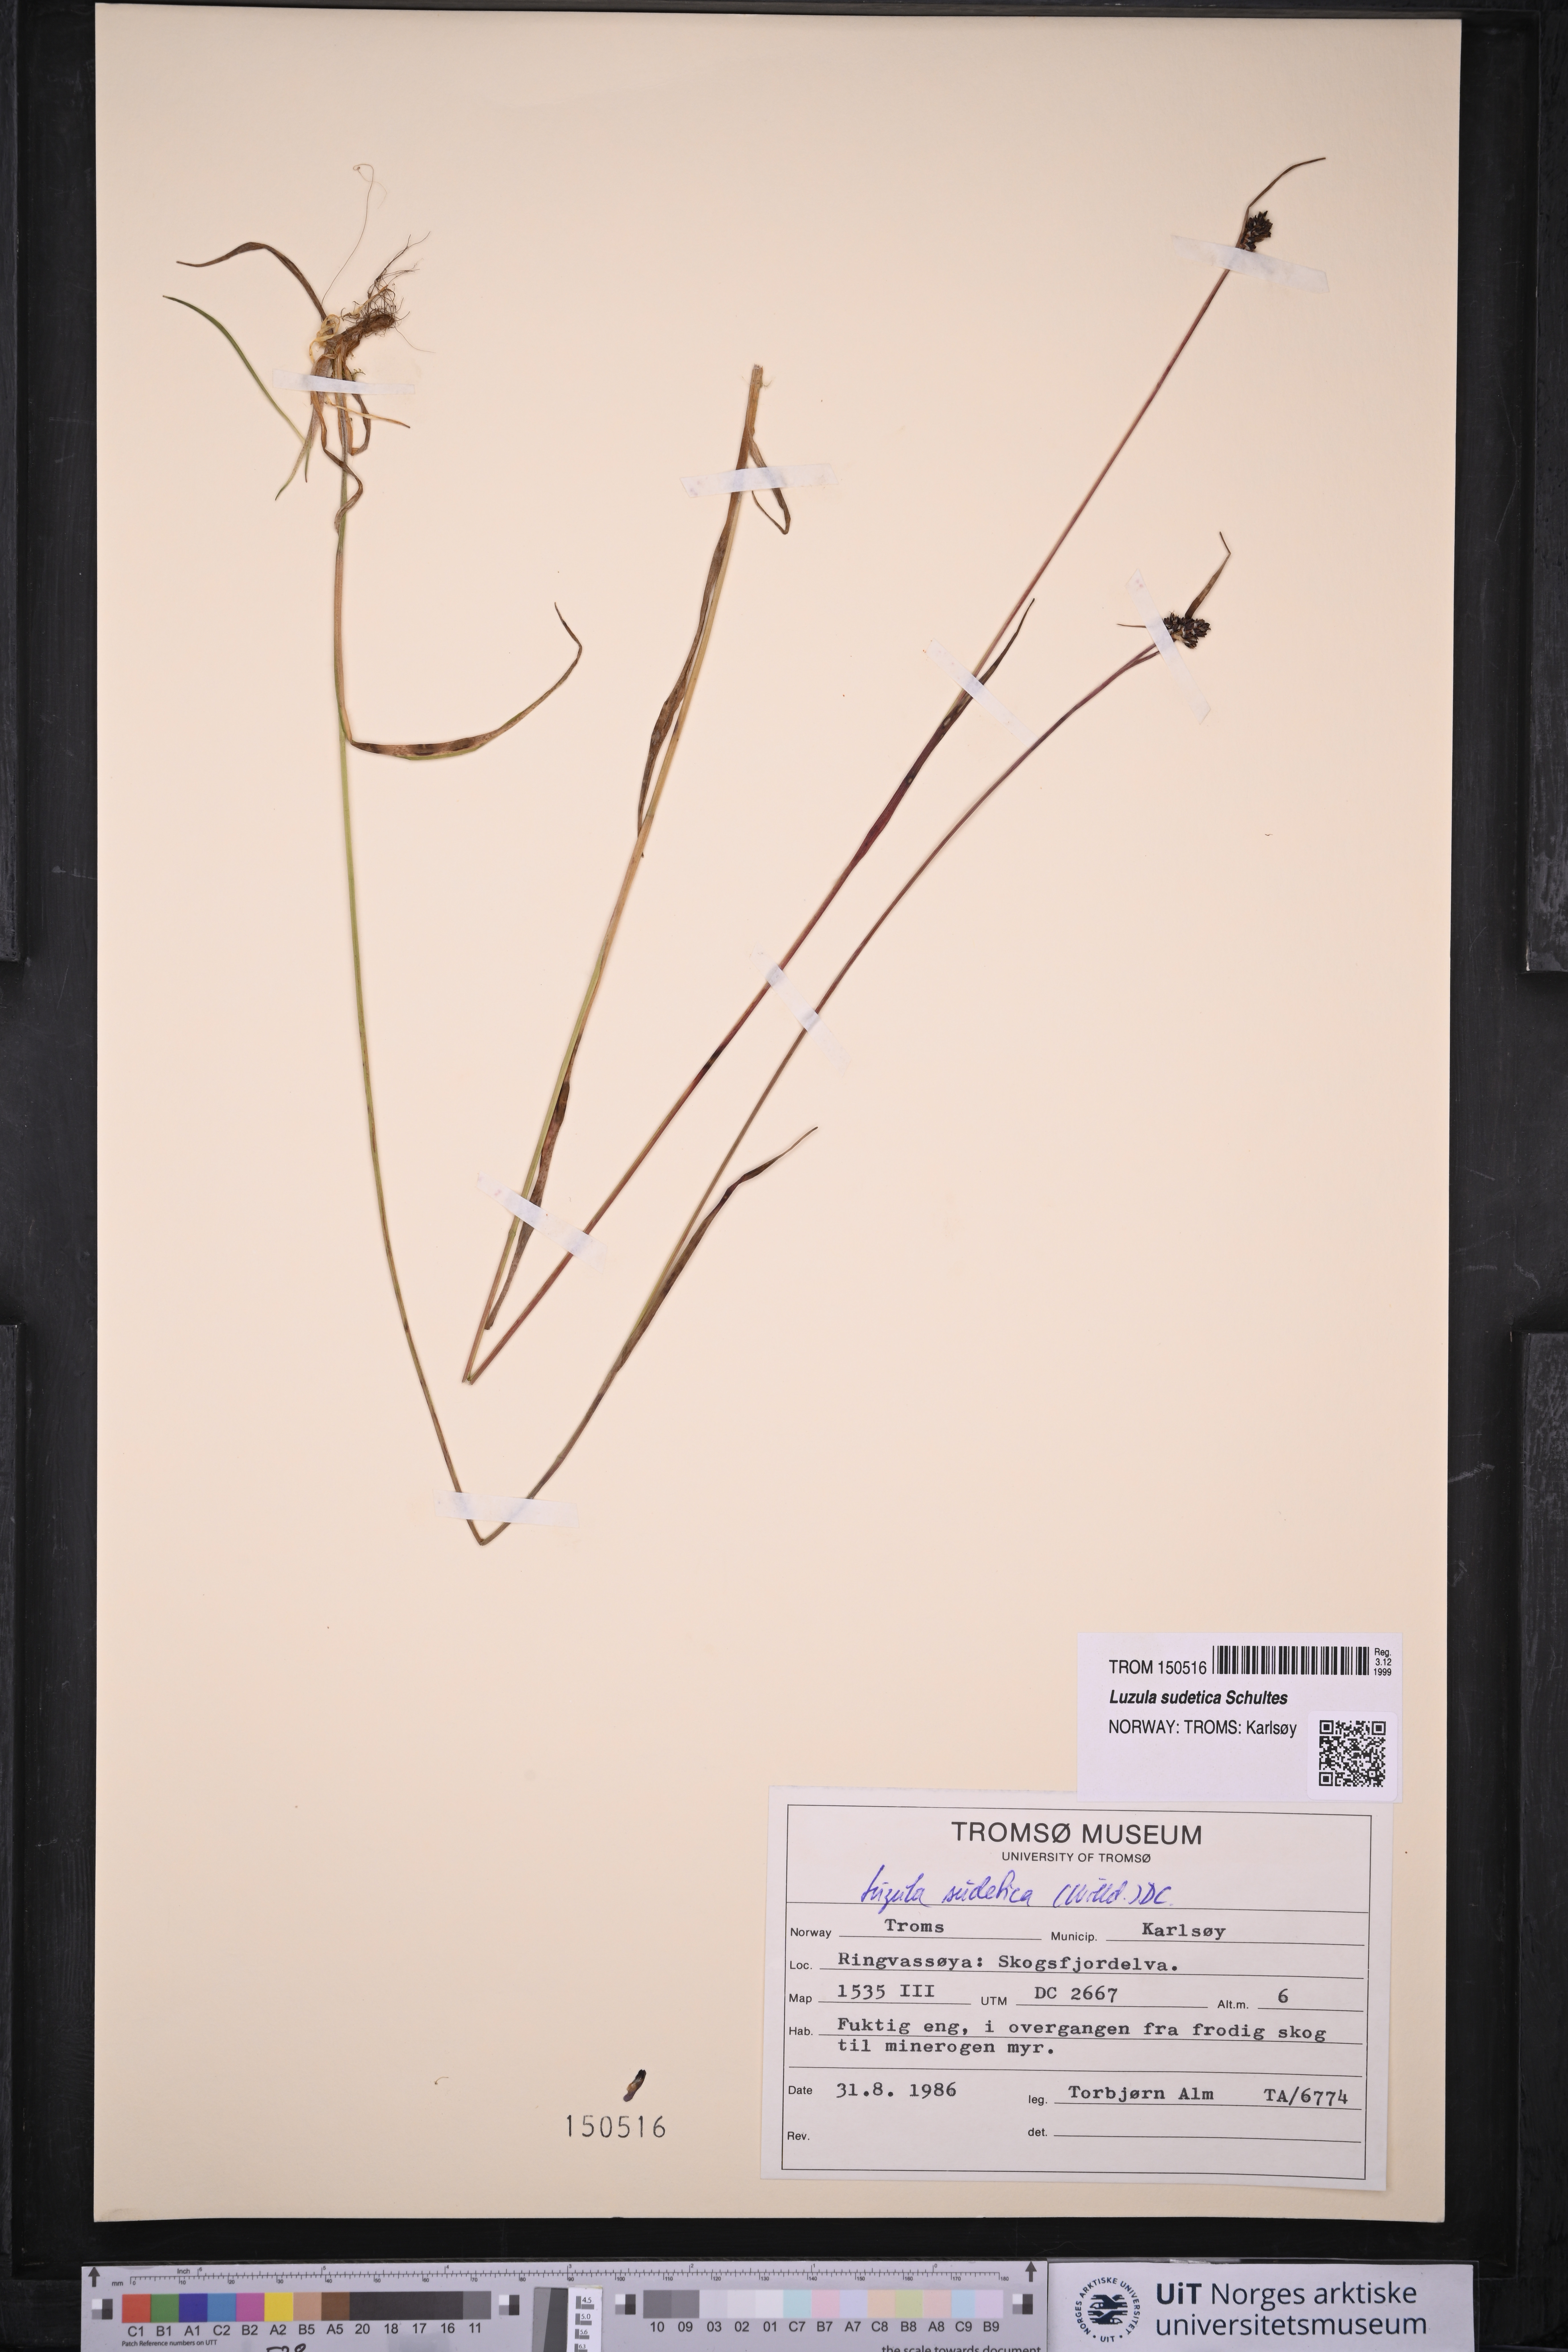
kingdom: Plantae
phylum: Tracheophyta
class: Liliopsida
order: Poales
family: Juncaceae
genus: Luzula
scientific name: Luzula sudetica
